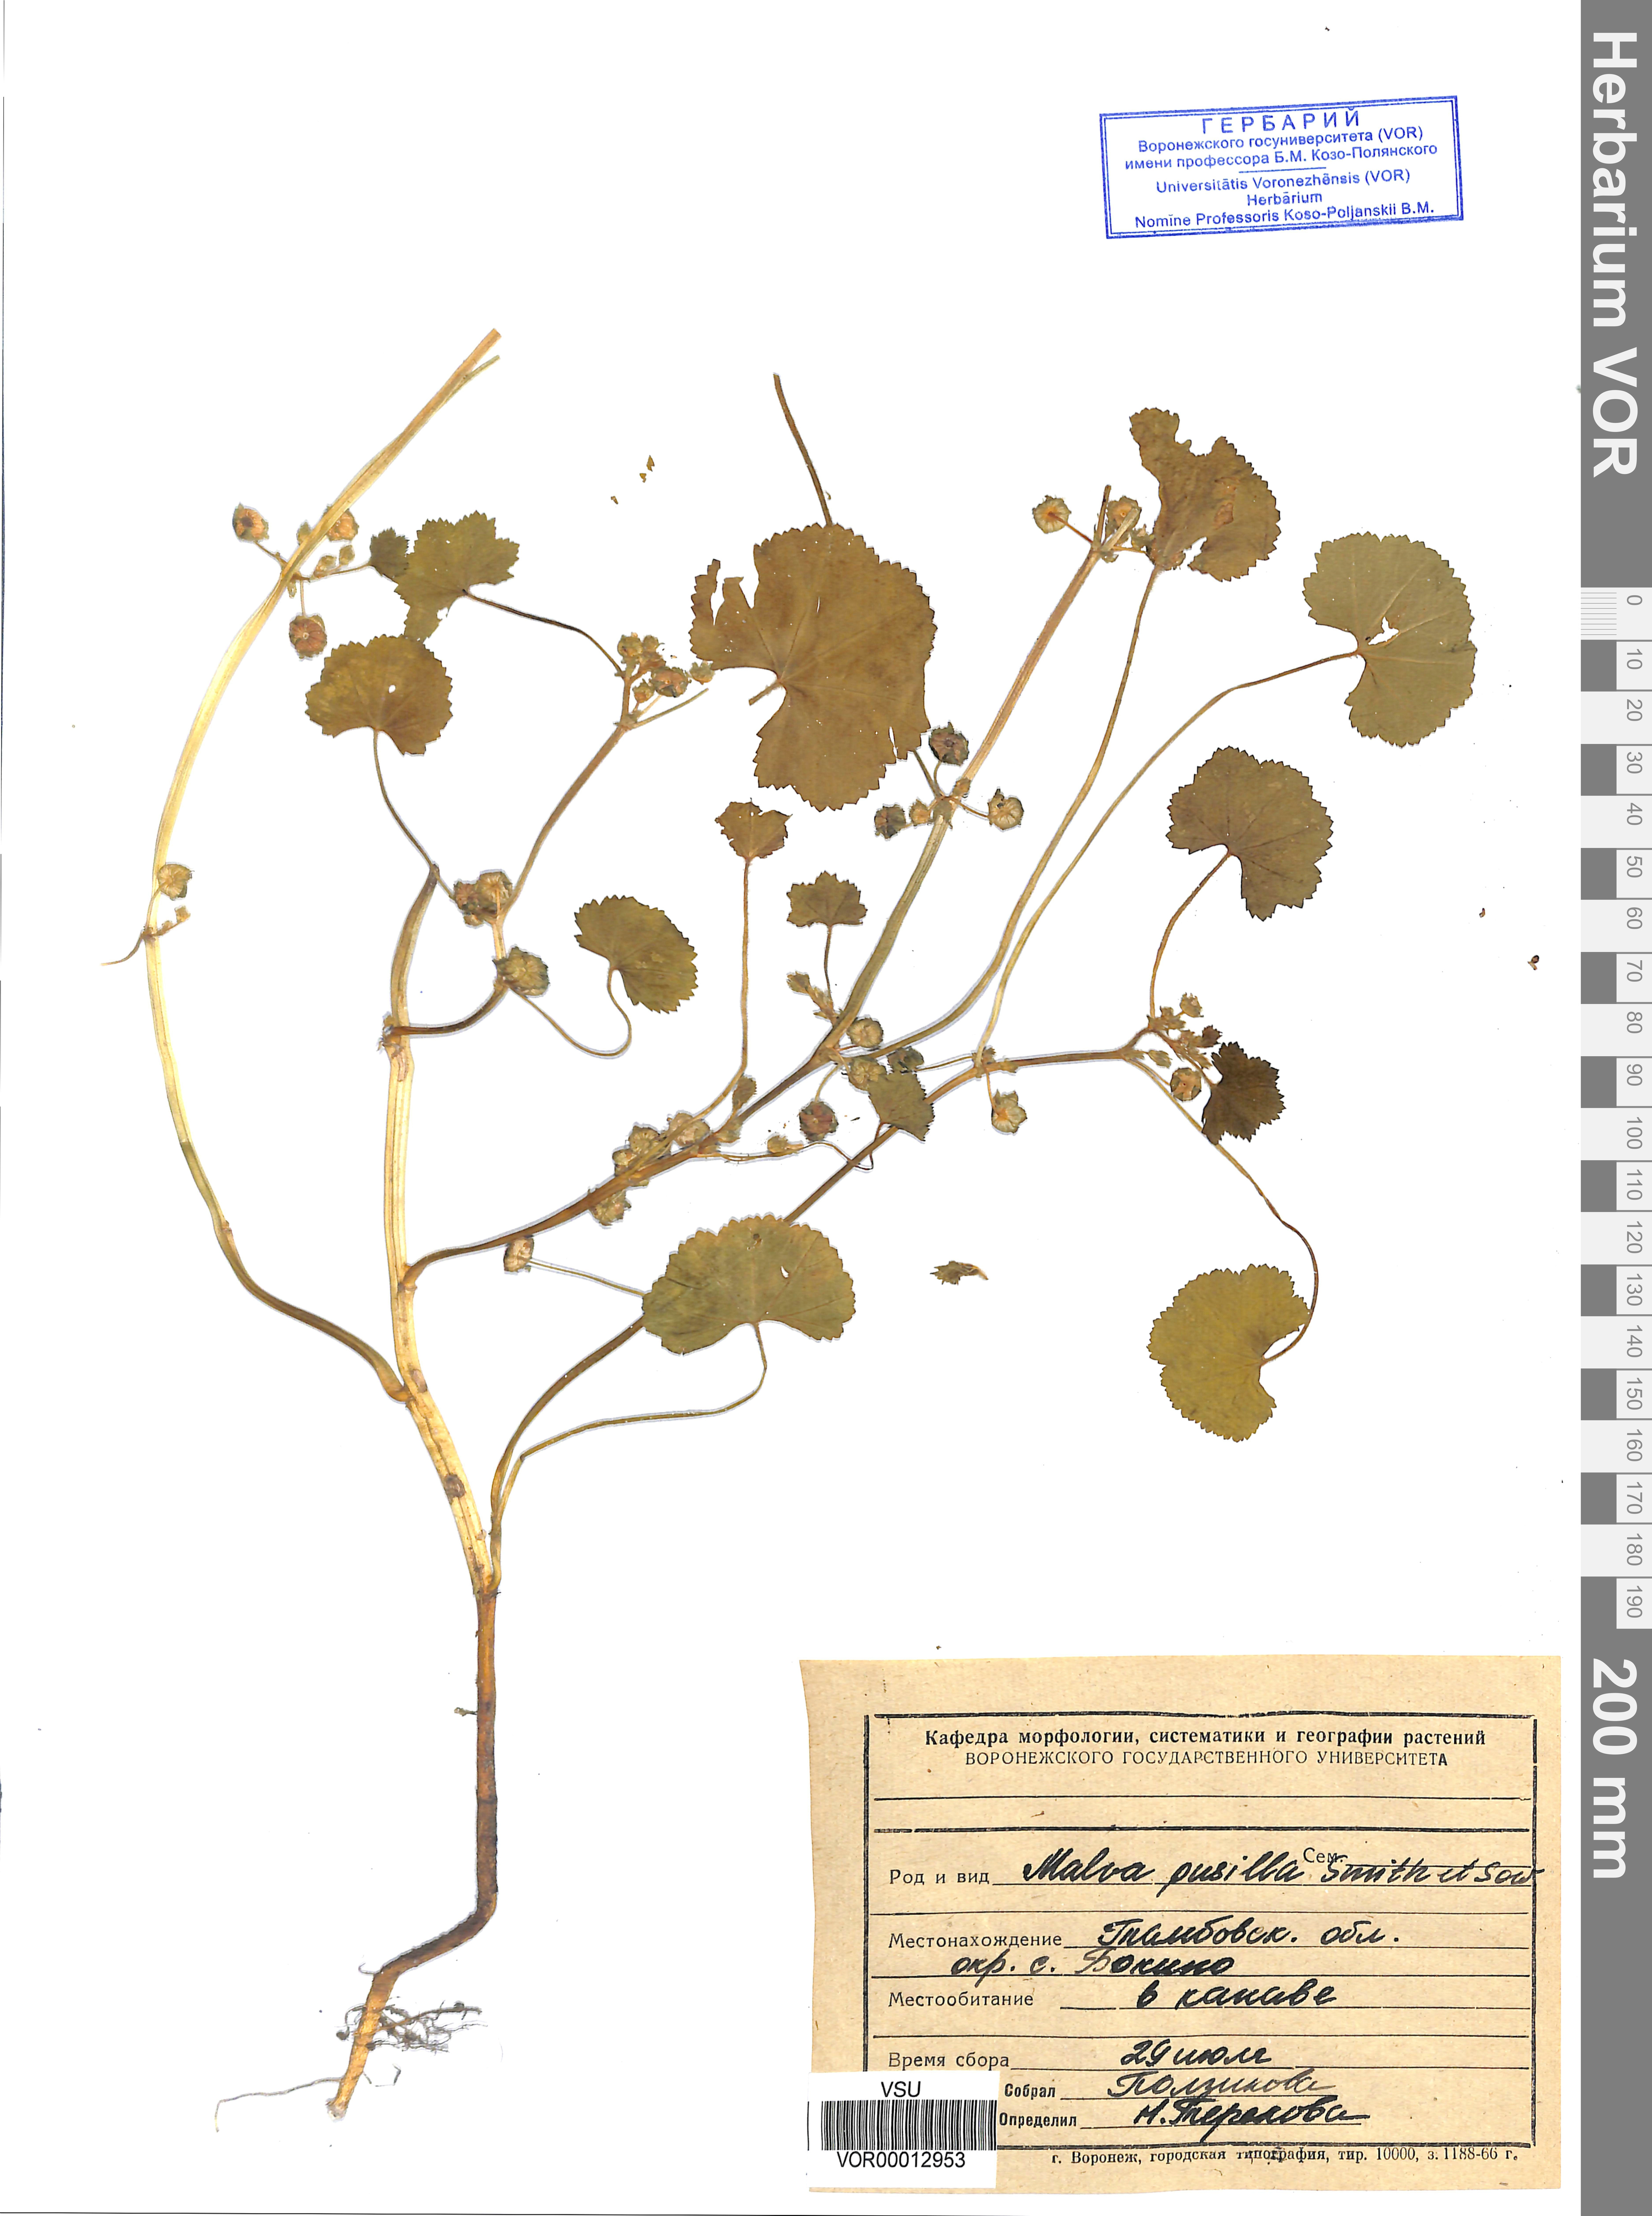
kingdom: Plantae
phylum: Tracheophyta
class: Magnoliopsida
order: Malvales
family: Malvaceae
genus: Malva
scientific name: Malva pusilla
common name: Small mallow
